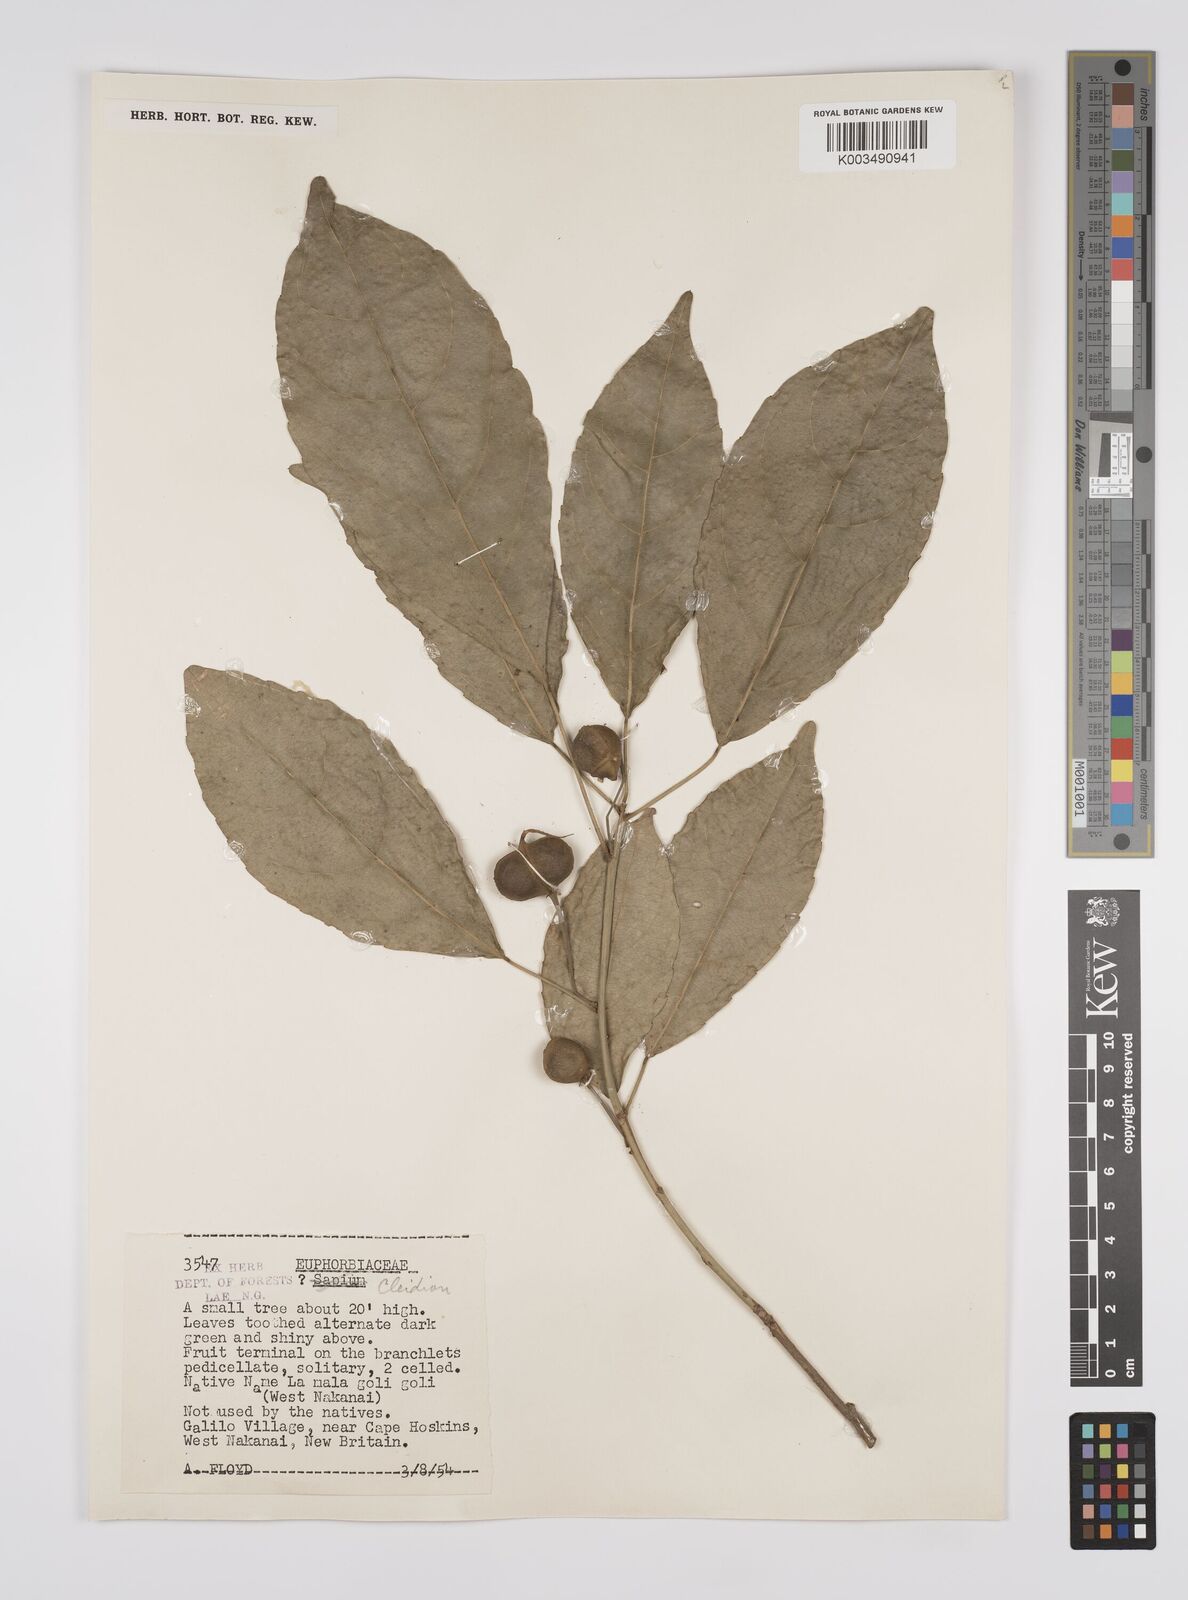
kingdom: Plantae
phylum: Tracheophyta
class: Magnoliopsida
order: Malpighiales
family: Euphorbiaceae
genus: Cleidion
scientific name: Cleidion javanicum
